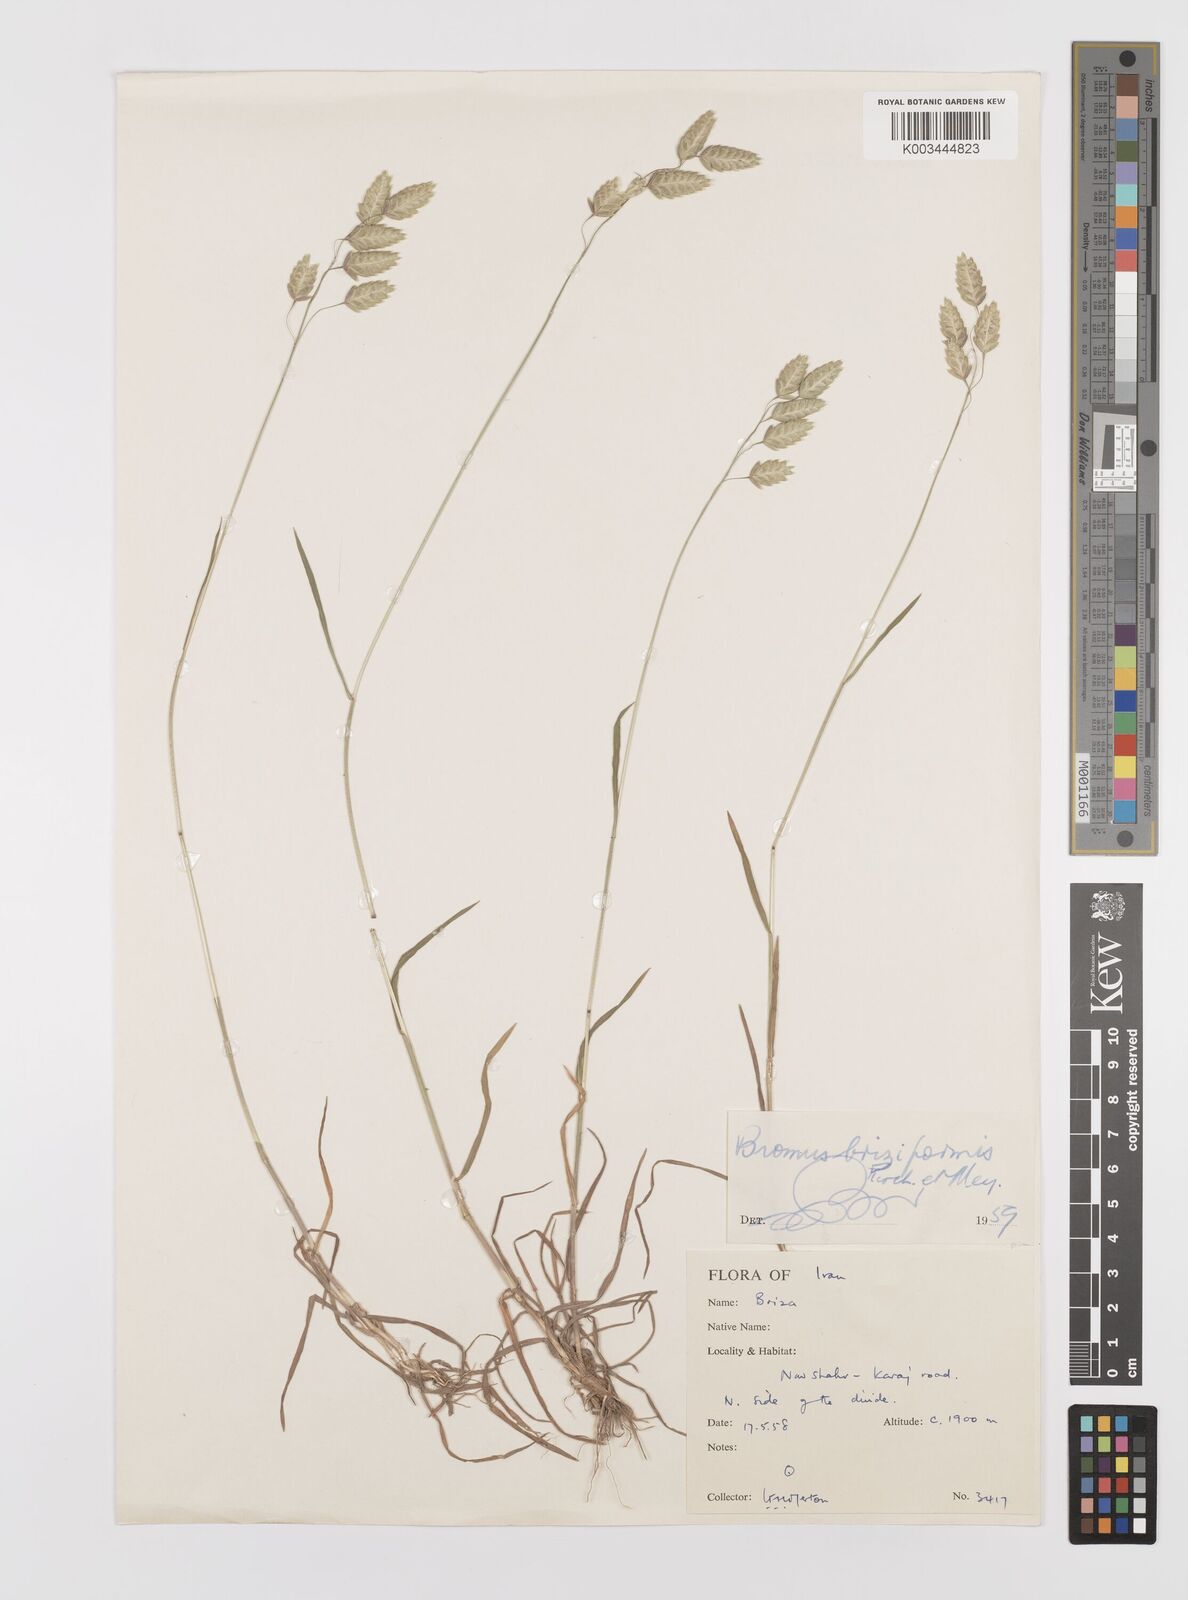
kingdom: Plantae
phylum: Tracheophyta
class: Liliopsida
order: Poales
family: Poaceae
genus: Bromus
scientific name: Bromus briziformis
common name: Rattlesnake brome
